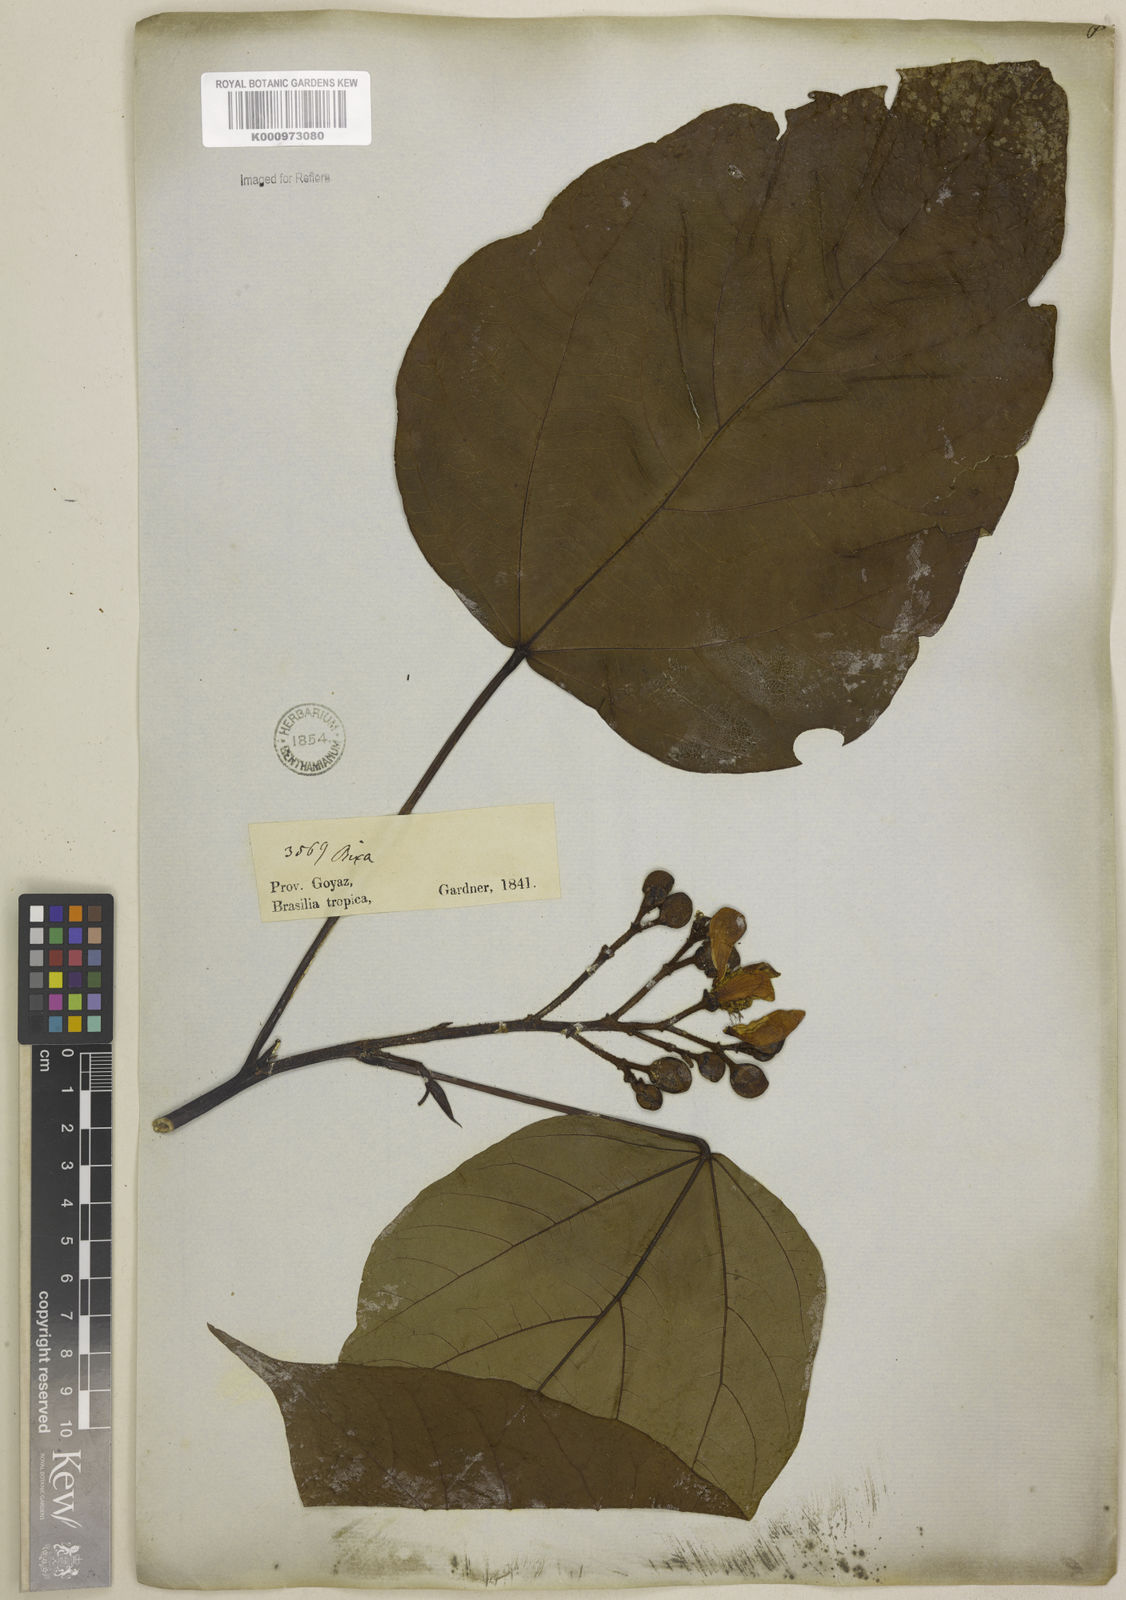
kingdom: Plantae
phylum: Tracheophyta
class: Magnoliopsida
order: Malvales
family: Bixaceae
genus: Bixa
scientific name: Bixa orellana
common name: Lipsticktree
